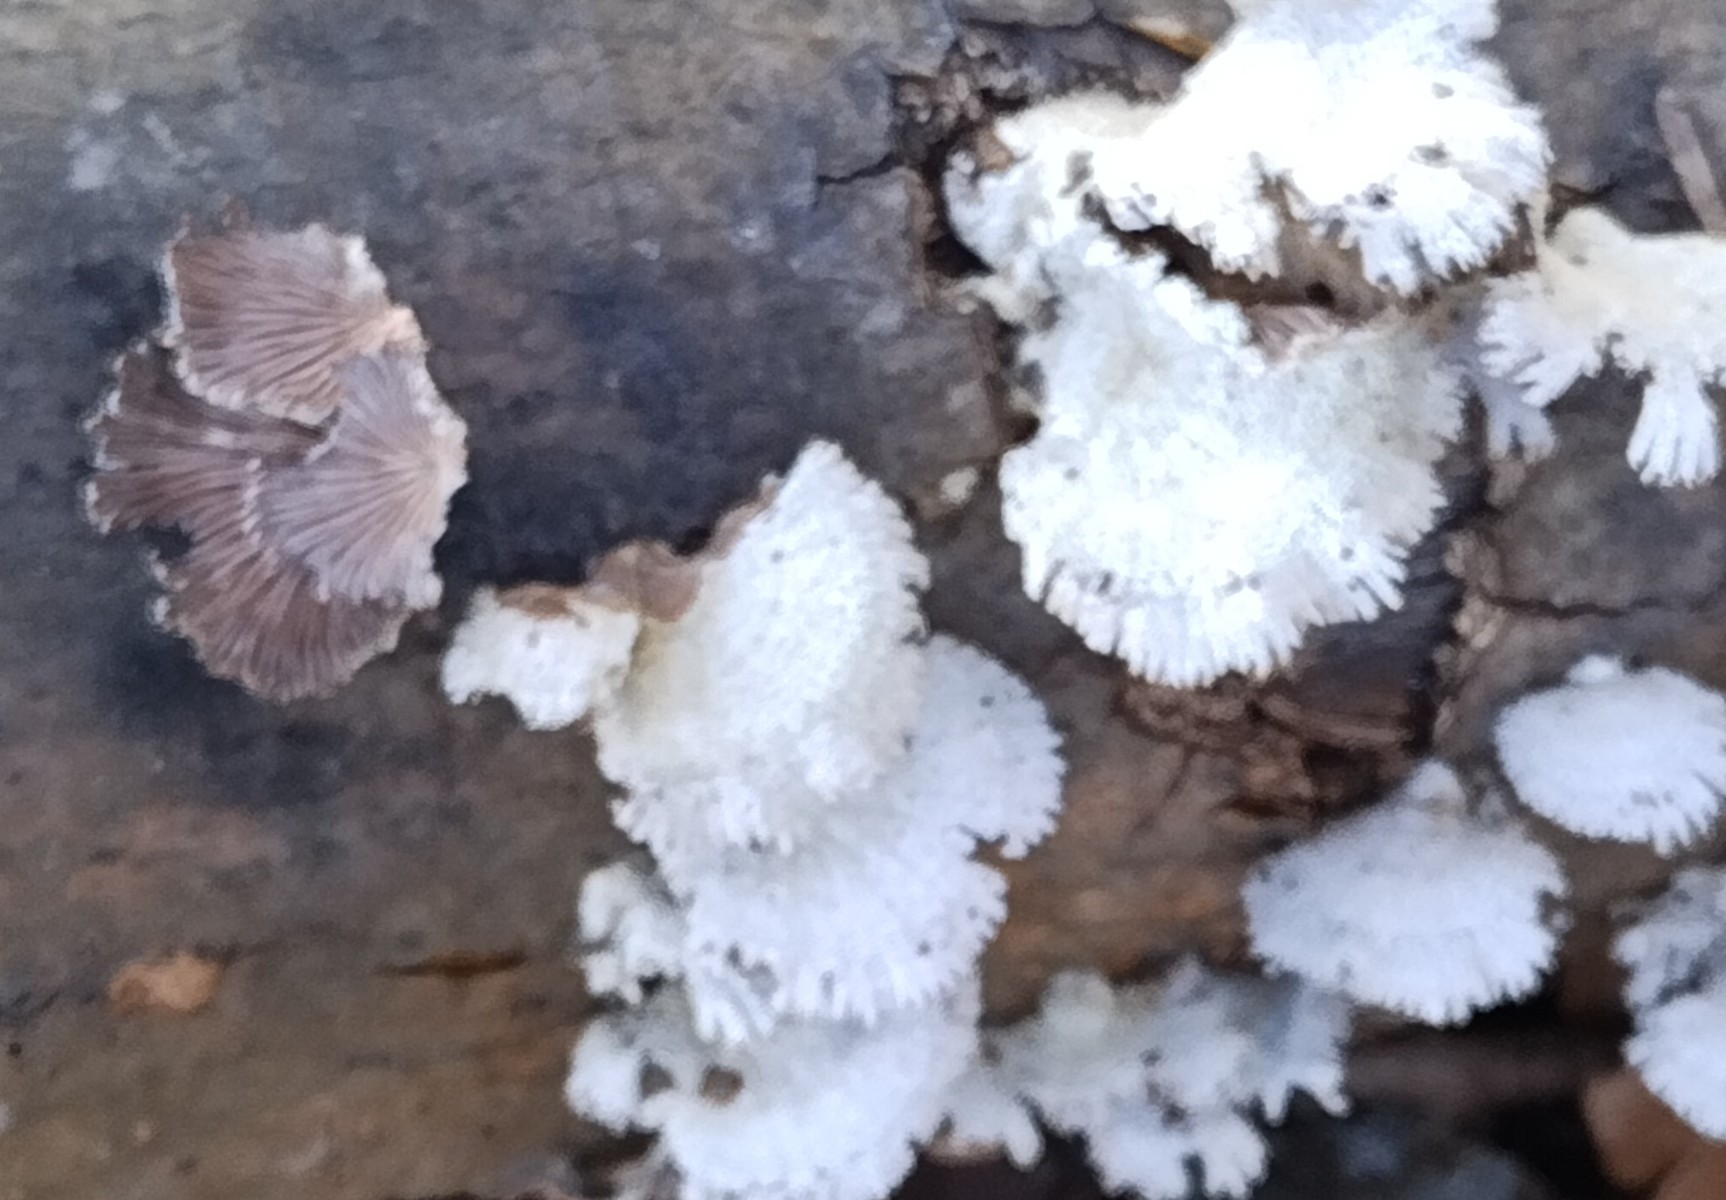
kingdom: Fungi
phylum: Basidiomycota
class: Agaricomycetes
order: Agaricales
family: Schizophyllaceae
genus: Schizophyllum
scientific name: Schizophyllum commune
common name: kløvblad
